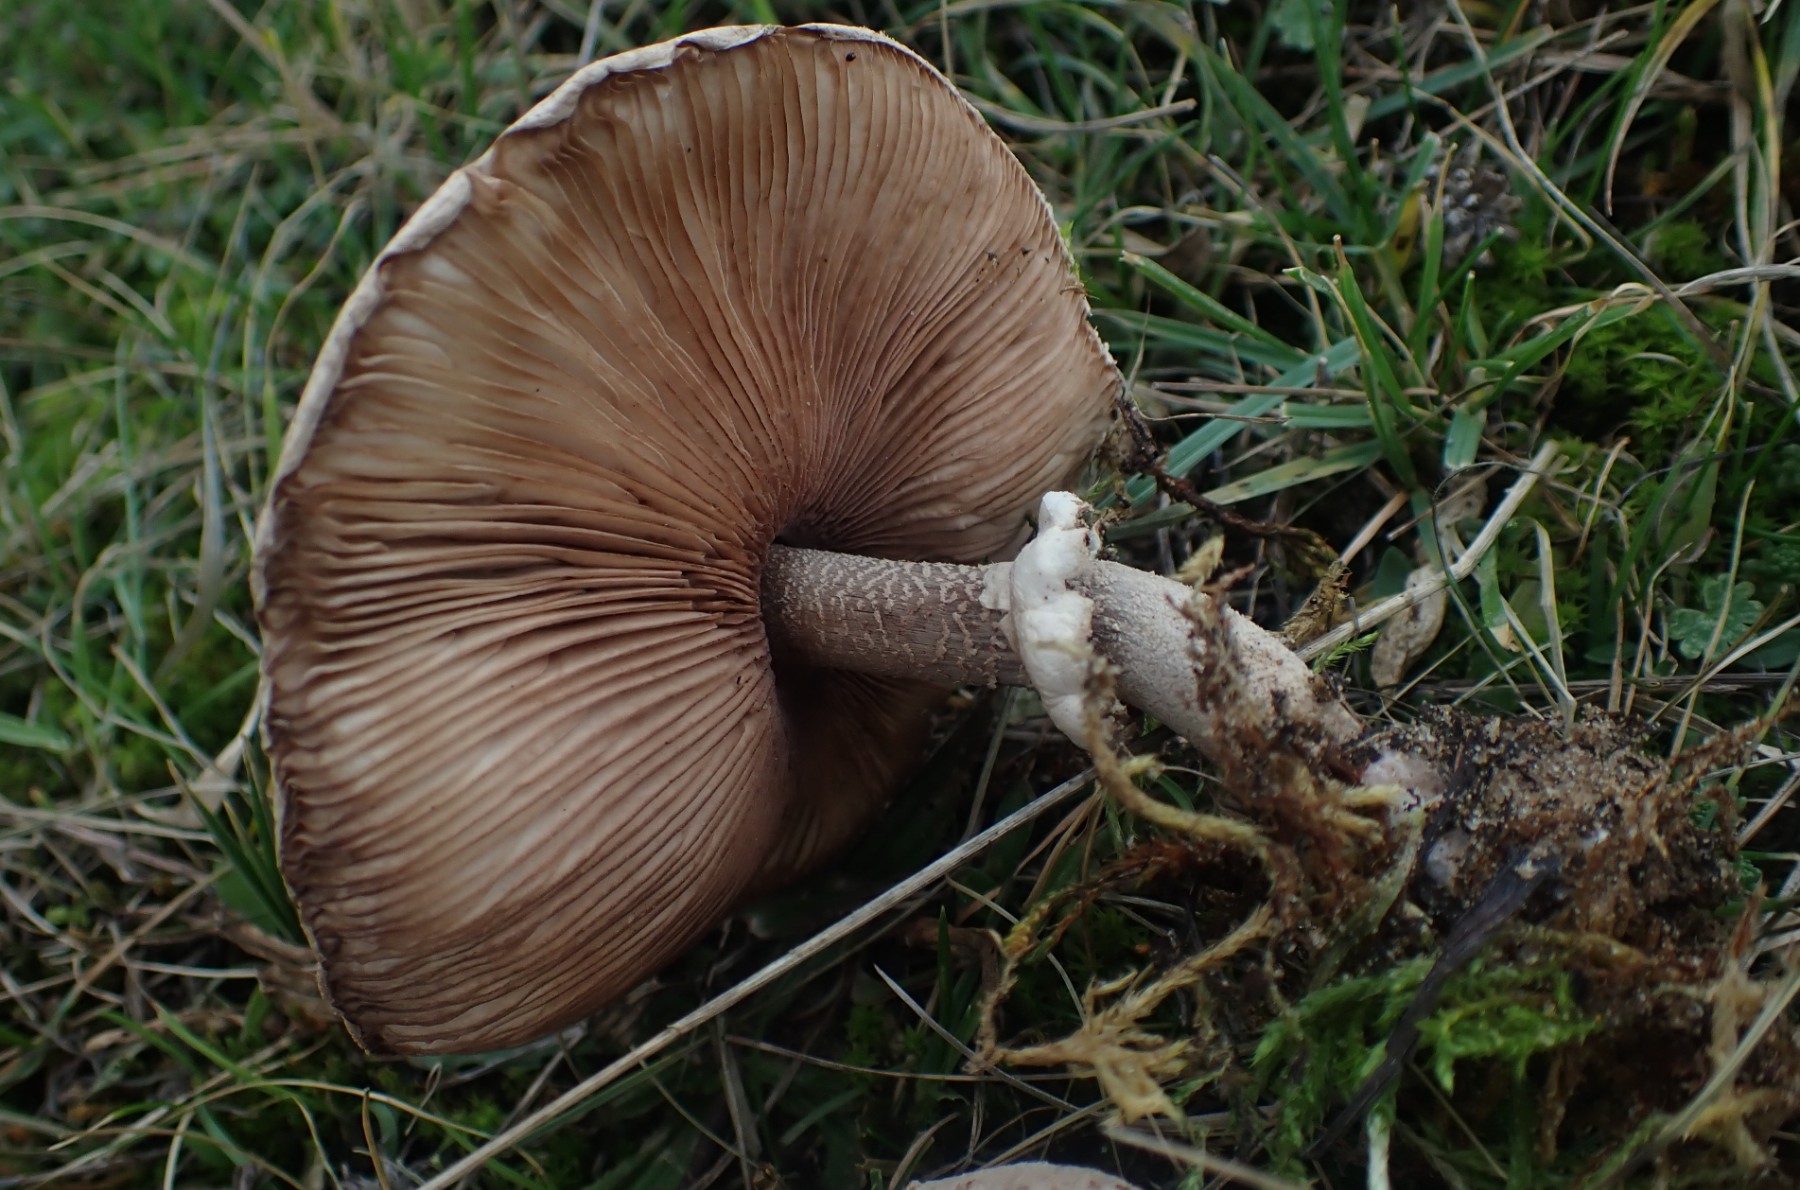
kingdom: Fungi
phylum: Basidiomycota
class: Agaricomycetes
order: Agaricales
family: Agaricaceae
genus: Macrolepiota
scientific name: Macrolepiota
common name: kæmpeparasolhat
